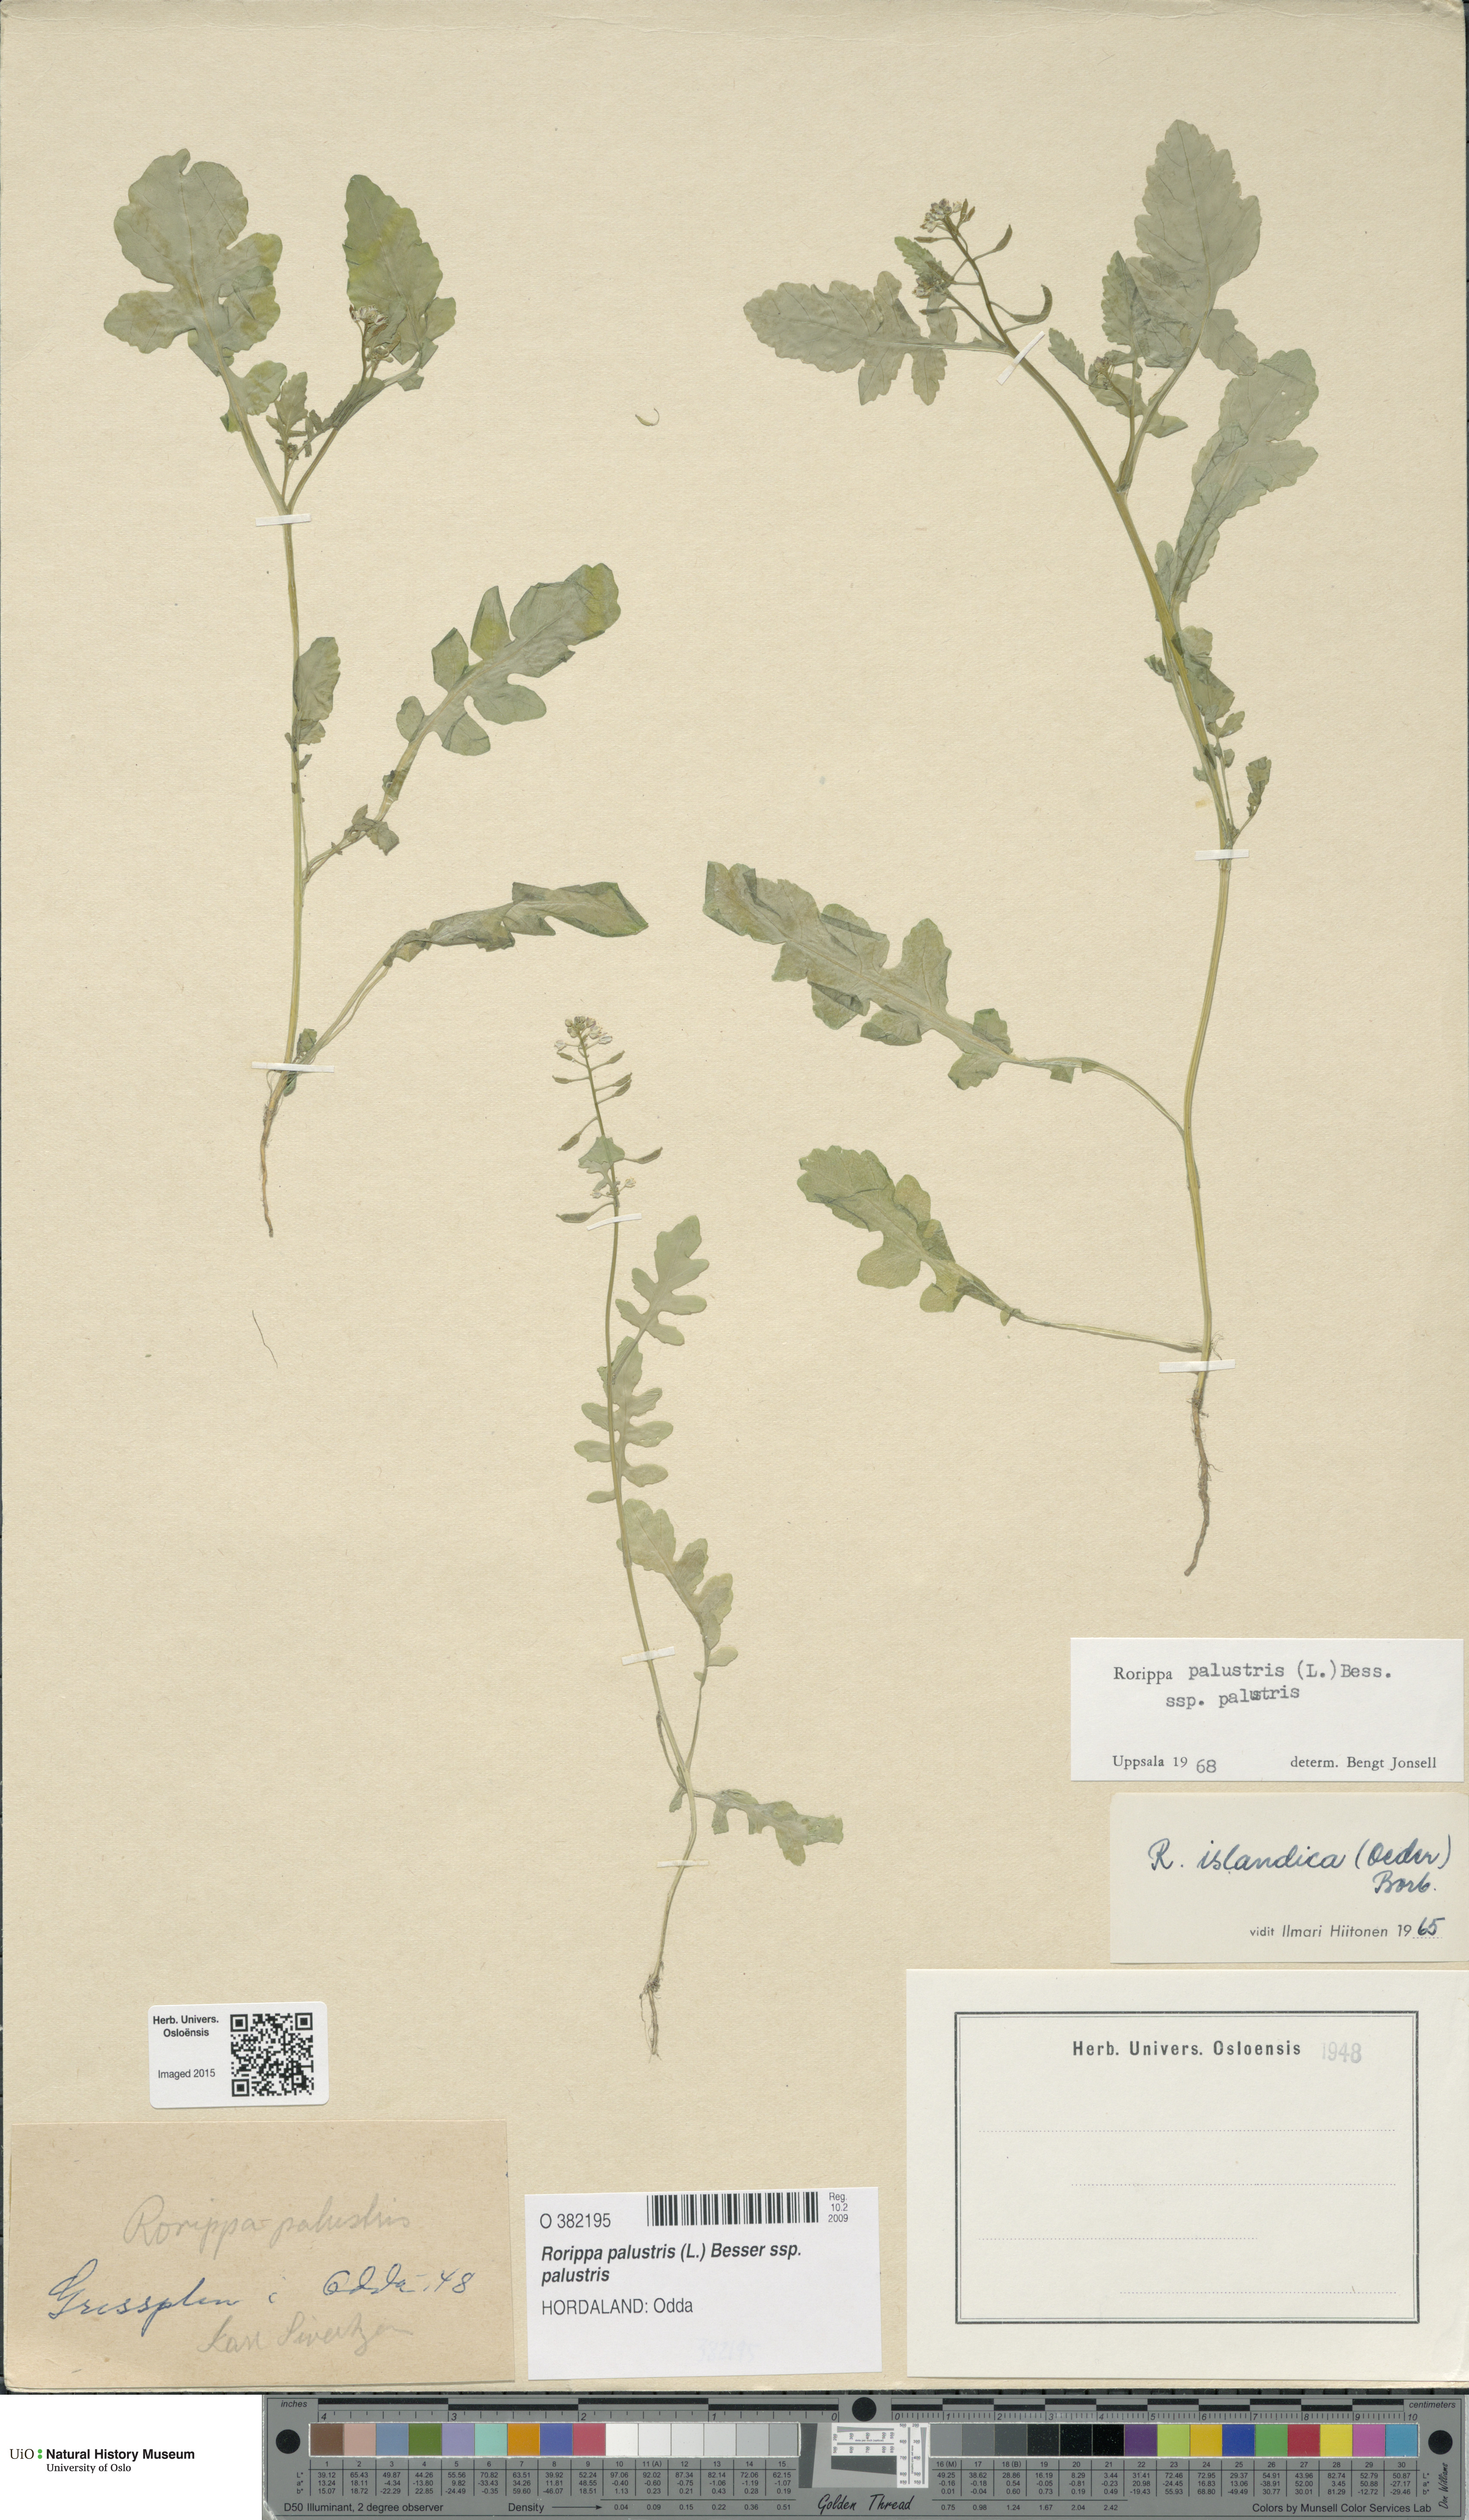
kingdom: Plantae
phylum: Tracheophyta
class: Magnoliopsida
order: Brassicales
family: Brassicaceae
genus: Rorippa
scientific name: Rorippa palustris
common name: Marsh yellow-cress
